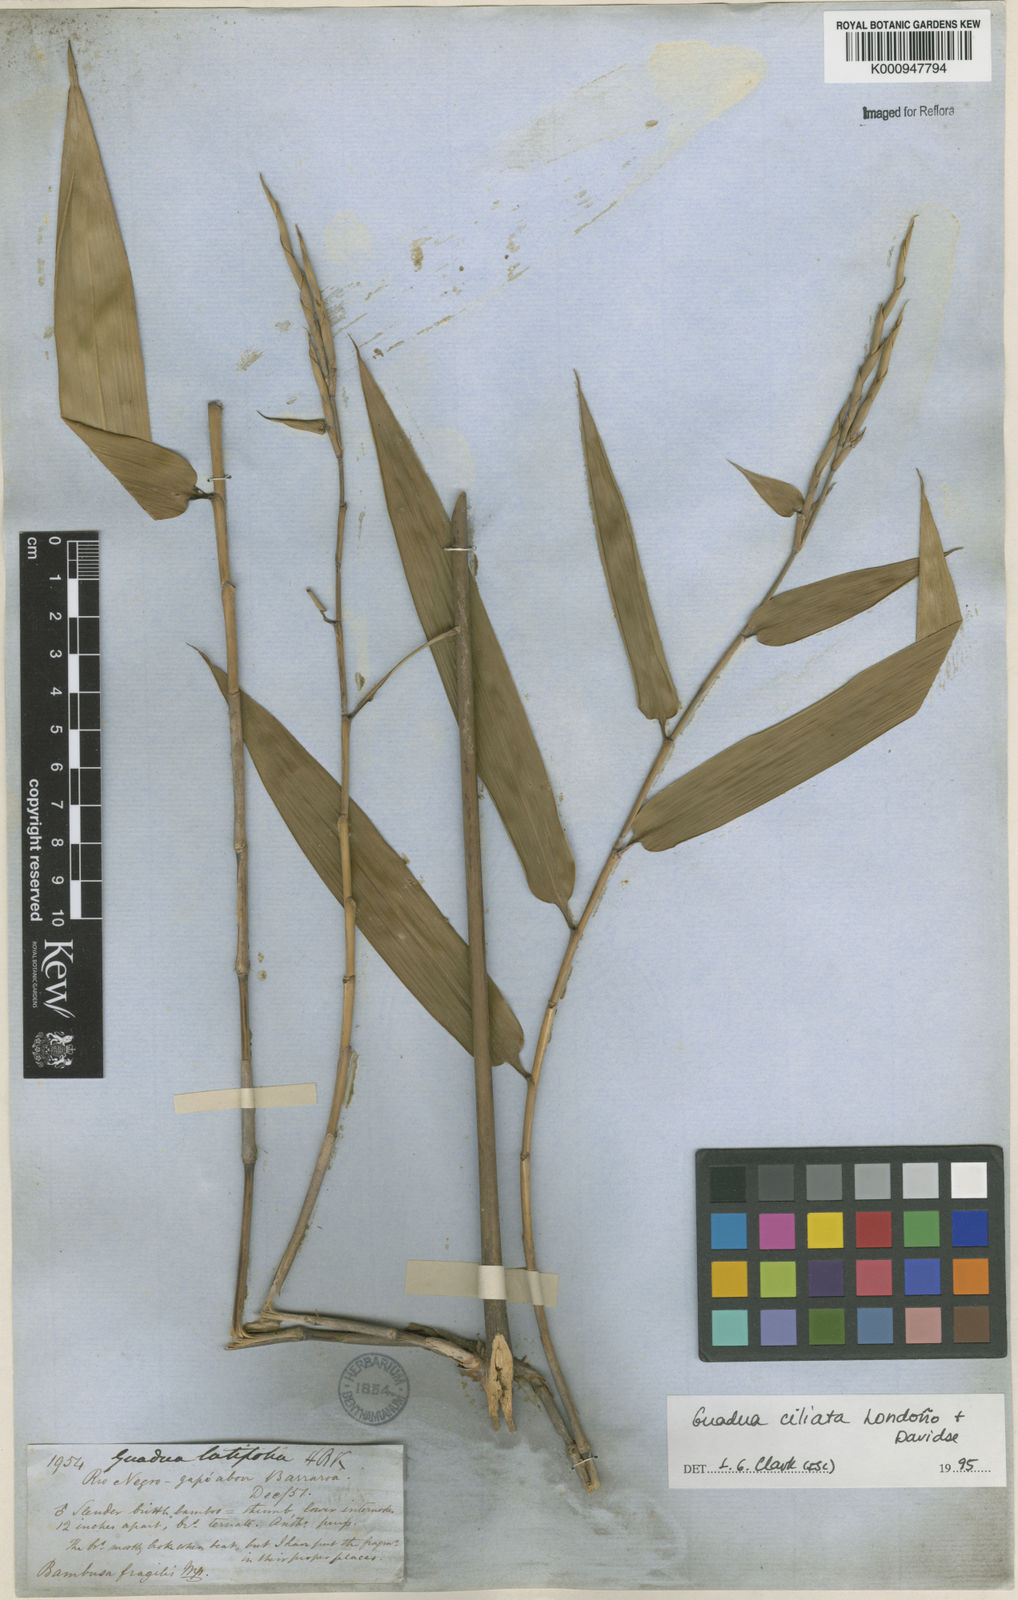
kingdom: Plantae
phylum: Tracheophyta
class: Liliopsida
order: Poales
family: Poaceae
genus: Guadua
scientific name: Guadua
